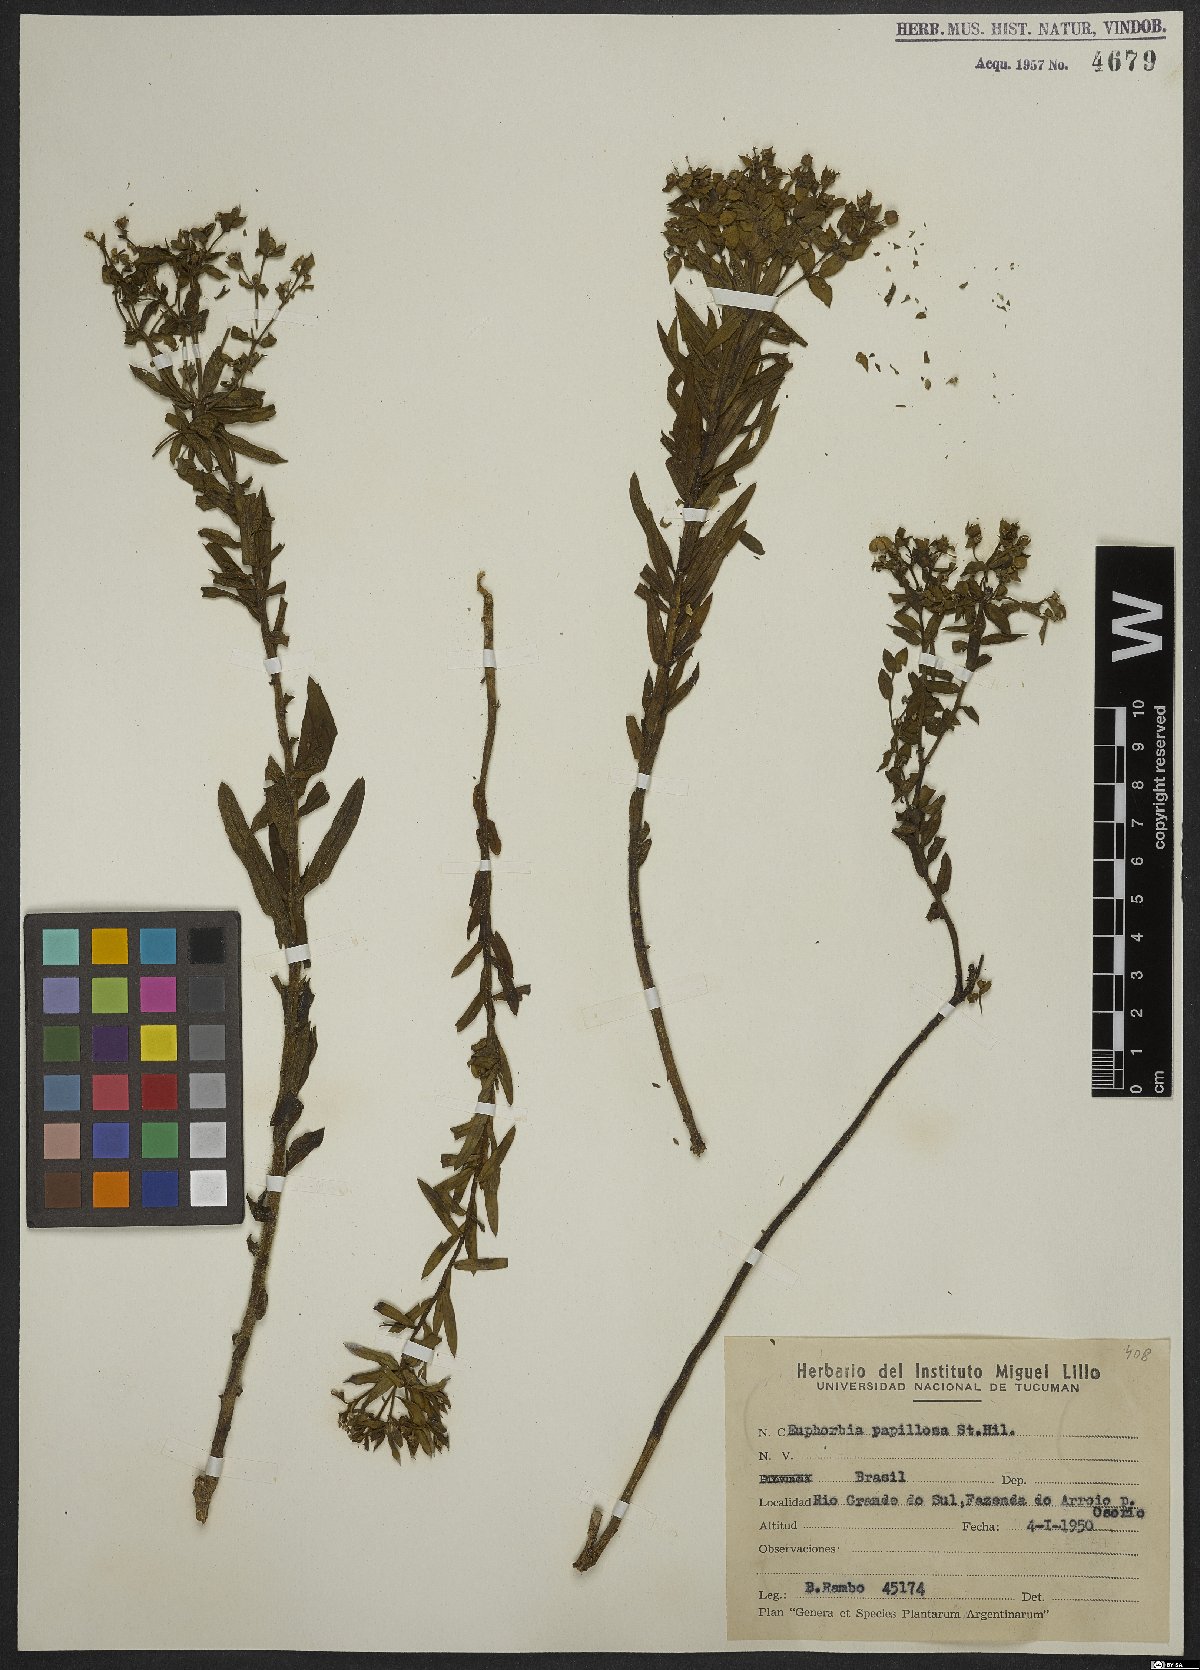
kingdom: Plantae
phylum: Tracheophyta
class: Magnoliopsida
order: Malpighiales
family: Euphorbiaceae
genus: Euphorbia
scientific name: Euphorbia papillosa
